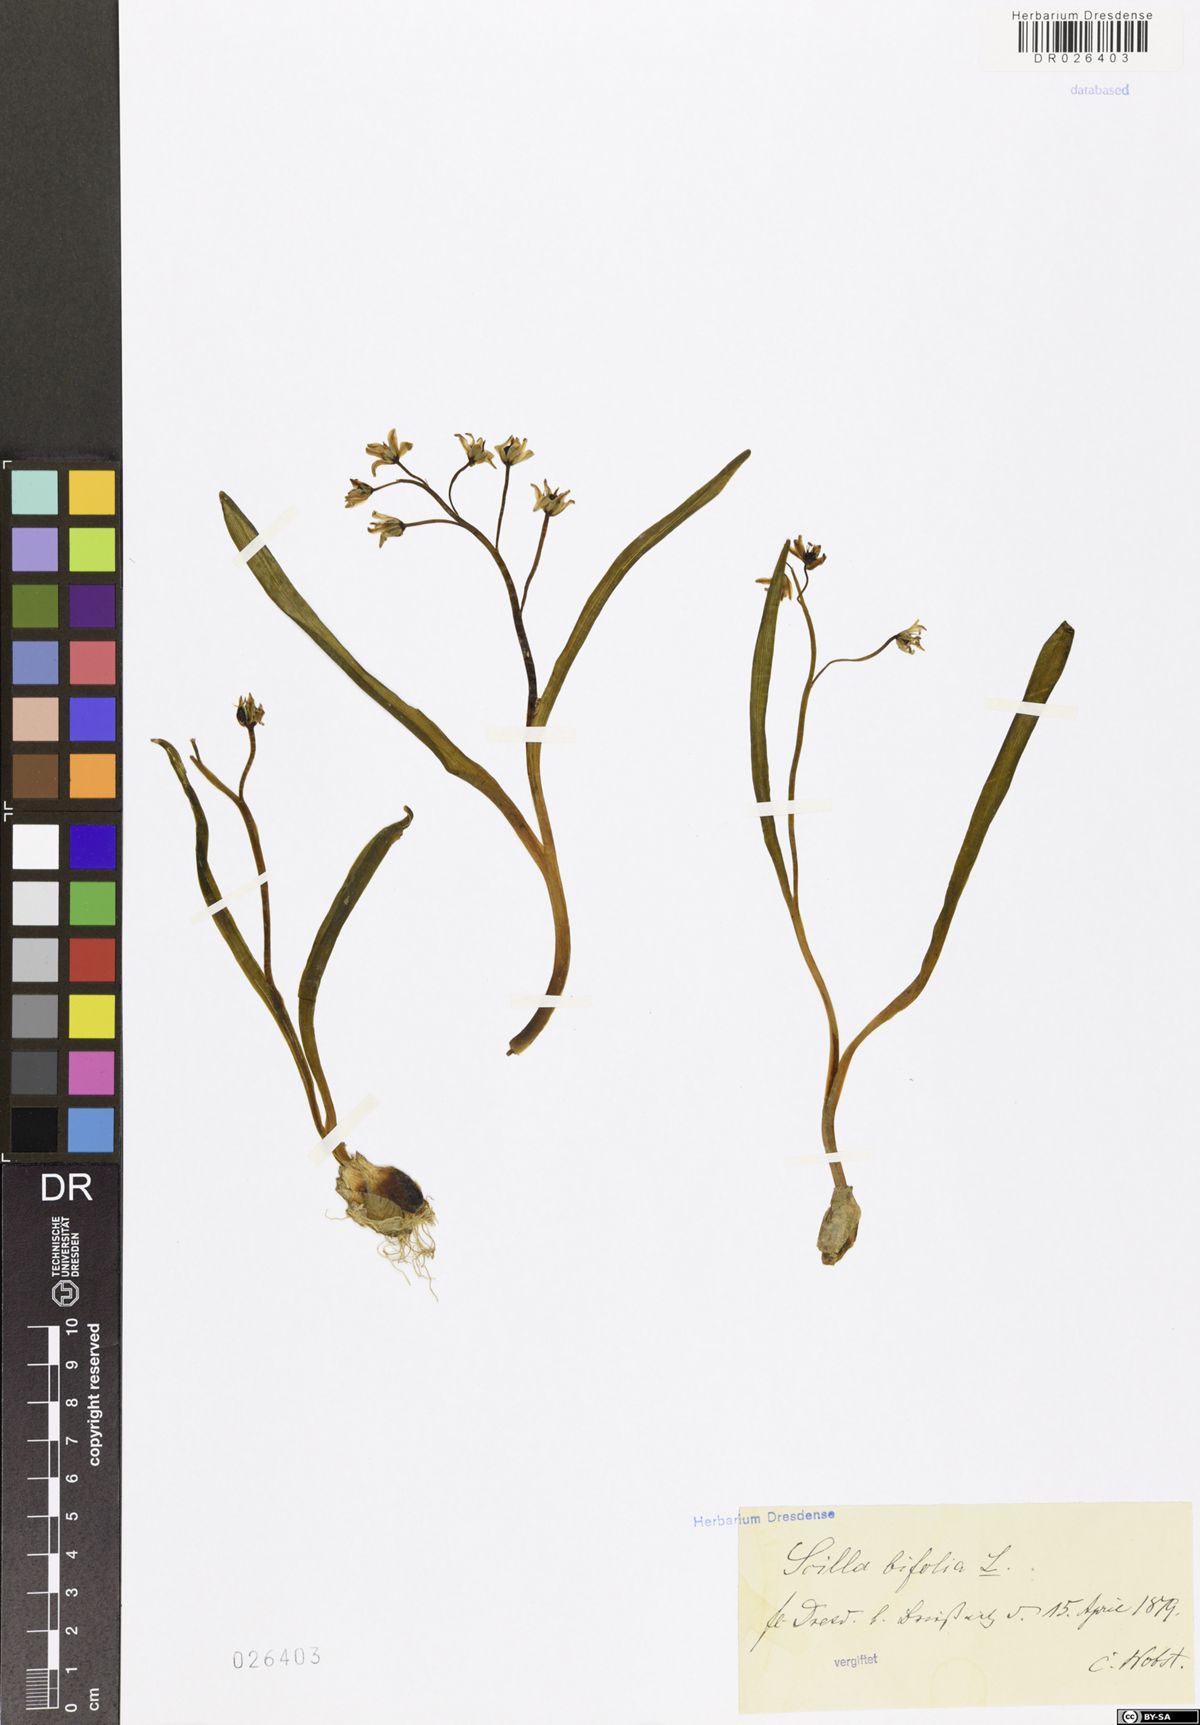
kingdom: Plantae
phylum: Tracheophyta
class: Liliopsida
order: Asparagales
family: Asparagaceae
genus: Scilla
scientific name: Scilla vindobonensis
